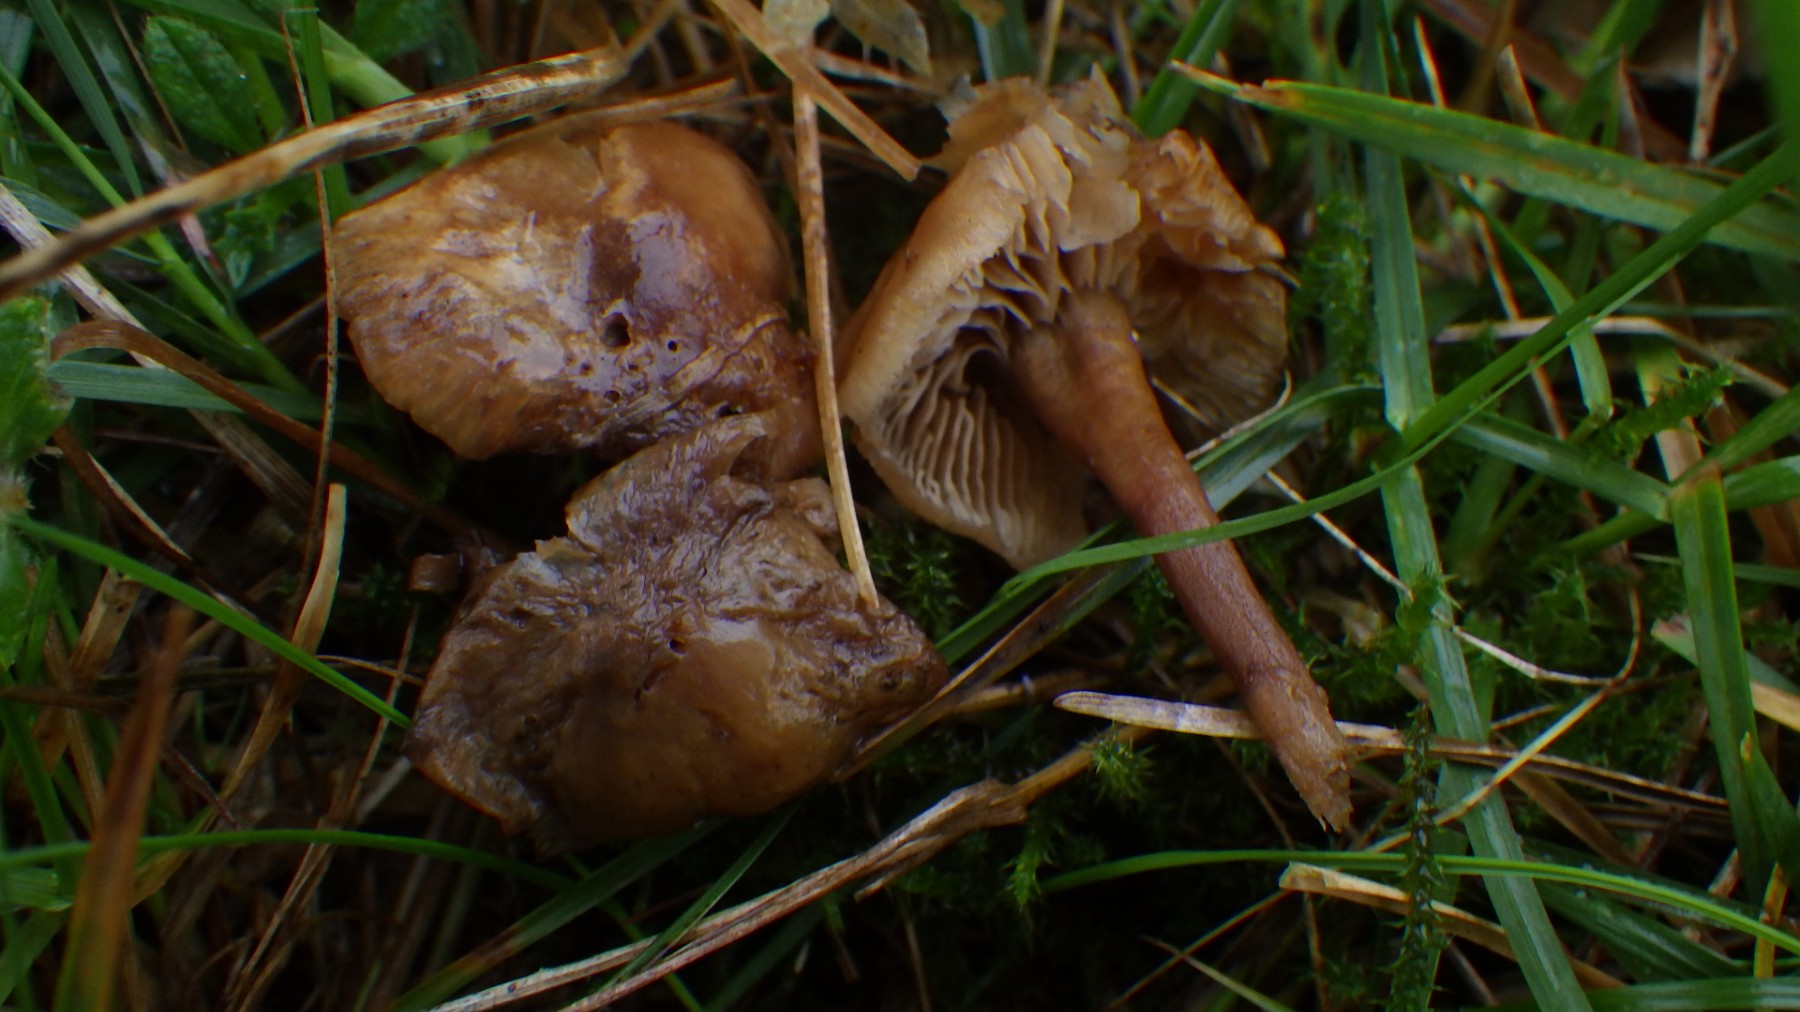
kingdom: Fungi
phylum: Basidiomycota
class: Agaricomycetes
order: Agaricales
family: Clavariaceae
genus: Camarophyllopsis
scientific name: Camarophyllopsis
